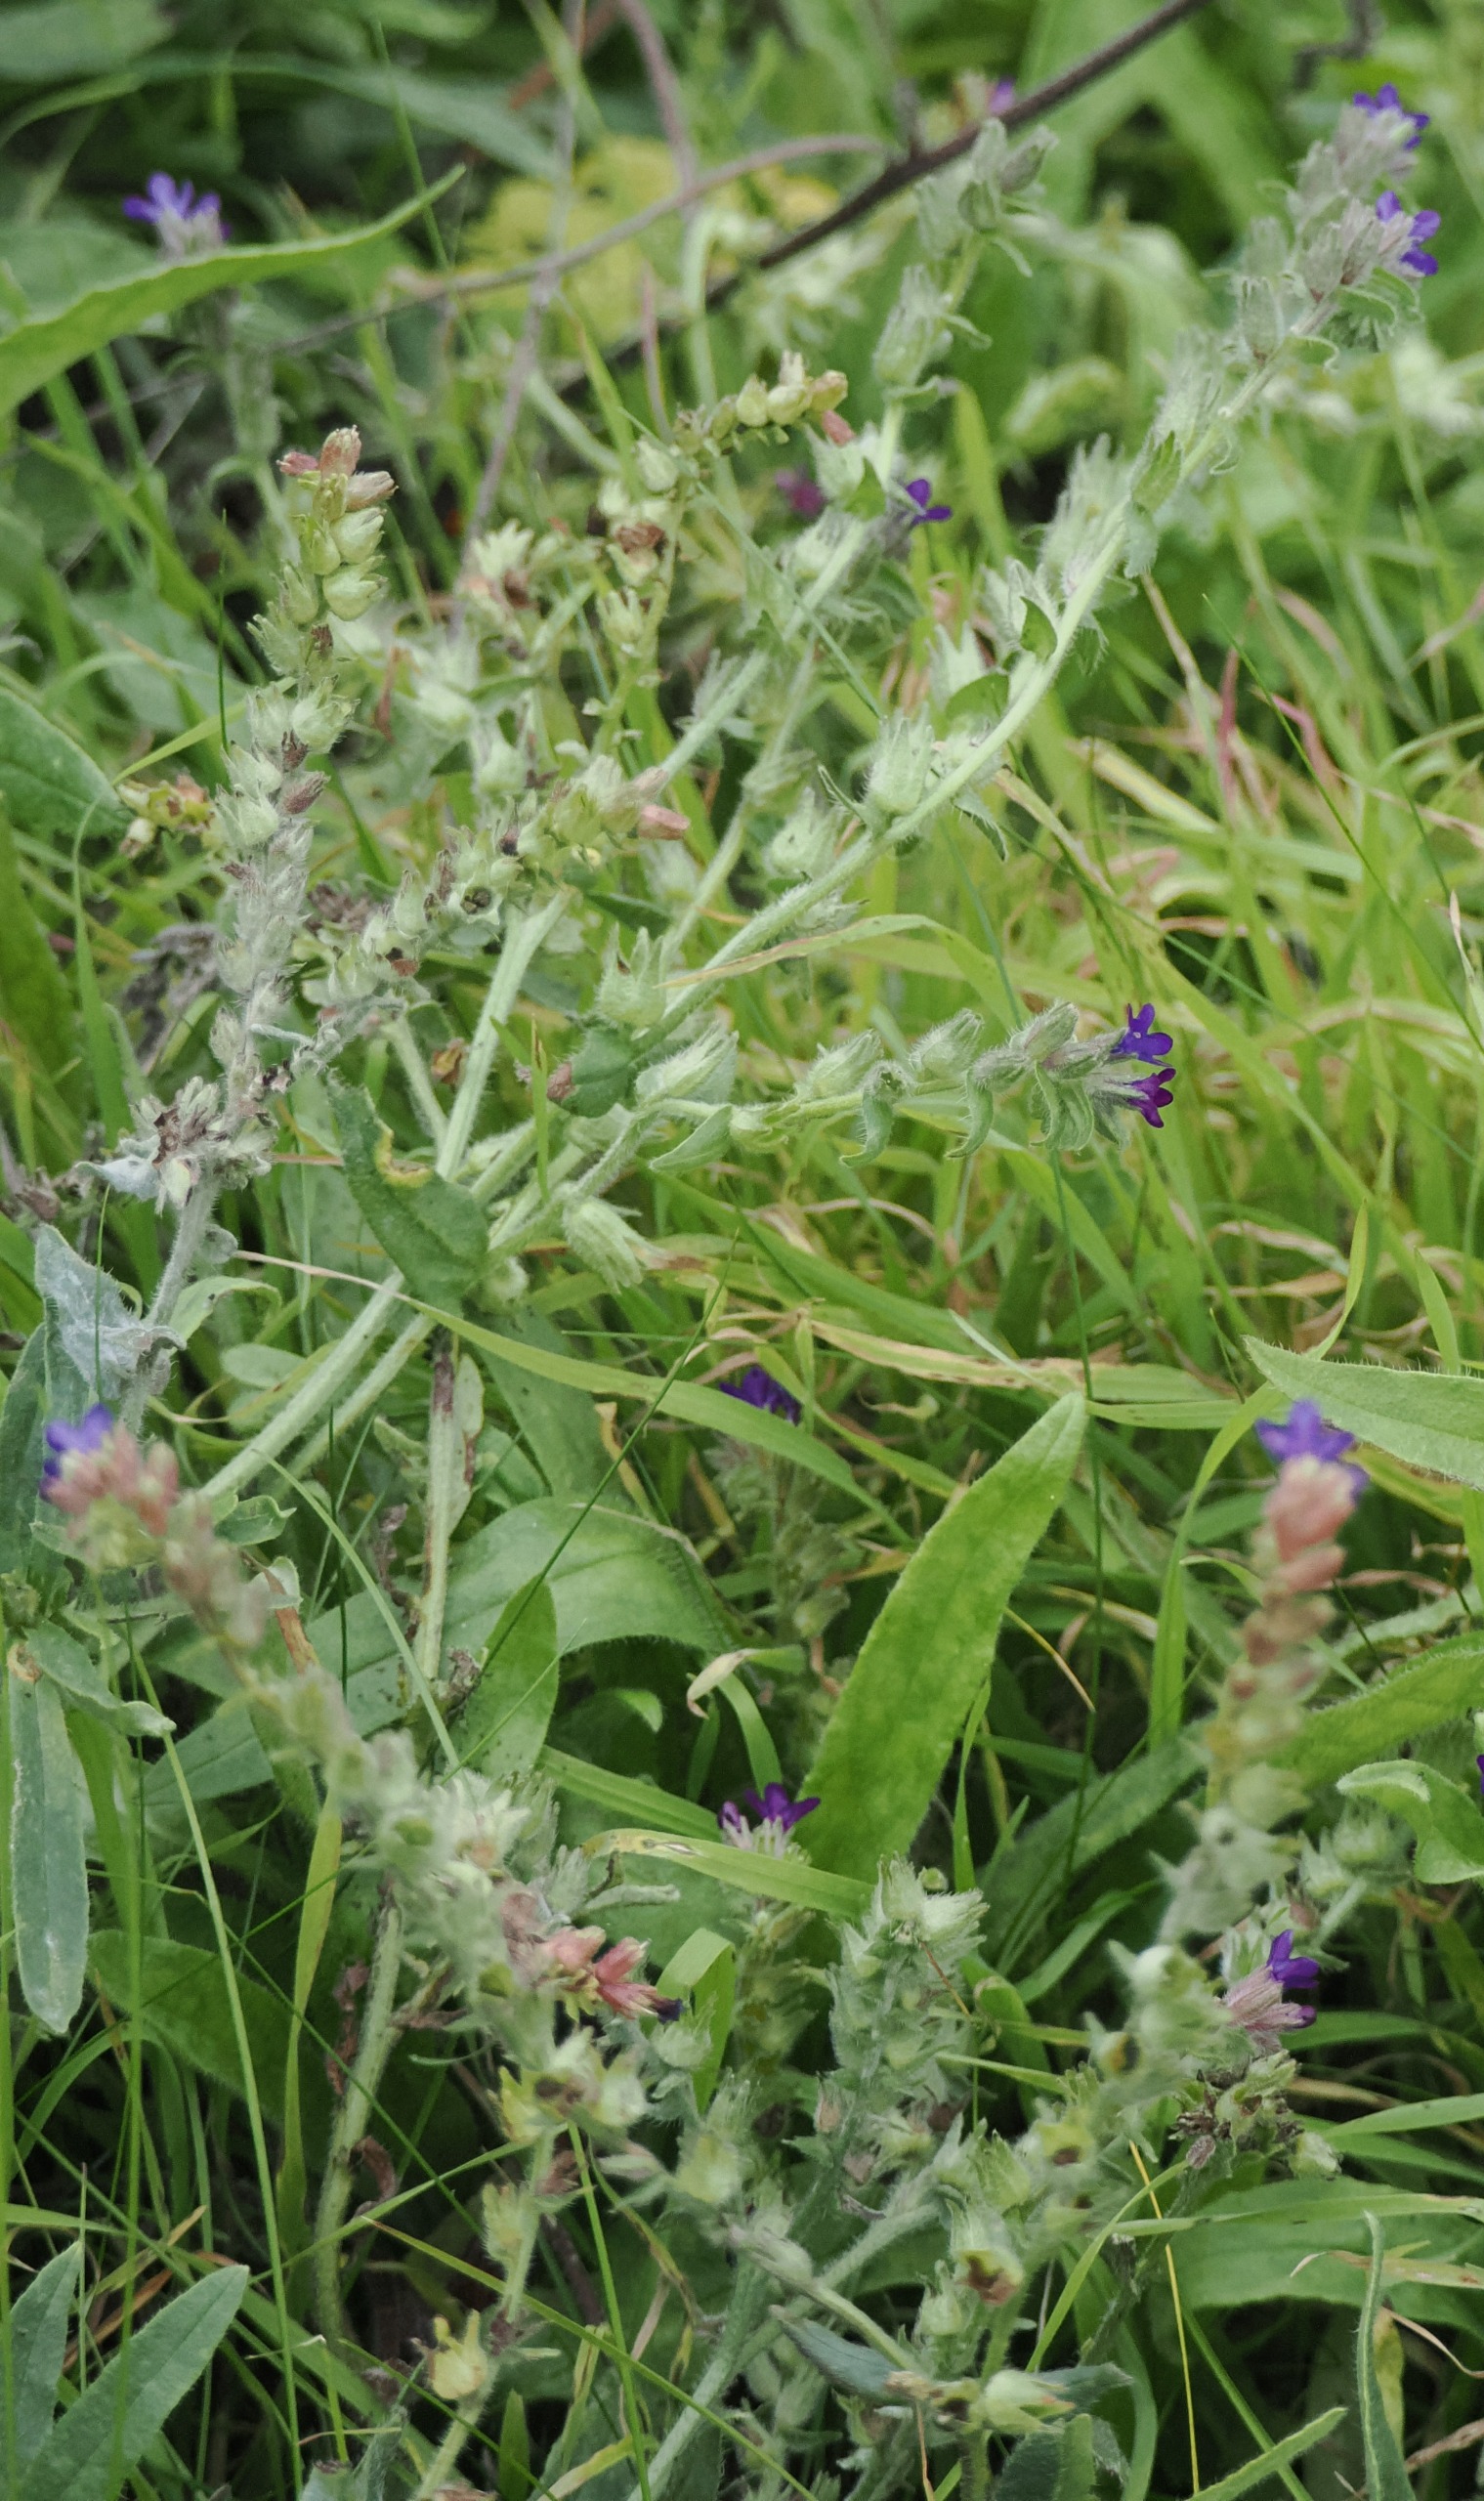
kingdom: Plantae
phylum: Tracheophyta
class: Magnoliopsida
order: Boraginales
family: Boraginaceae
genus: Anchusa
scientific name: Anchusa officinalis
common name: Læge-oksetunge
